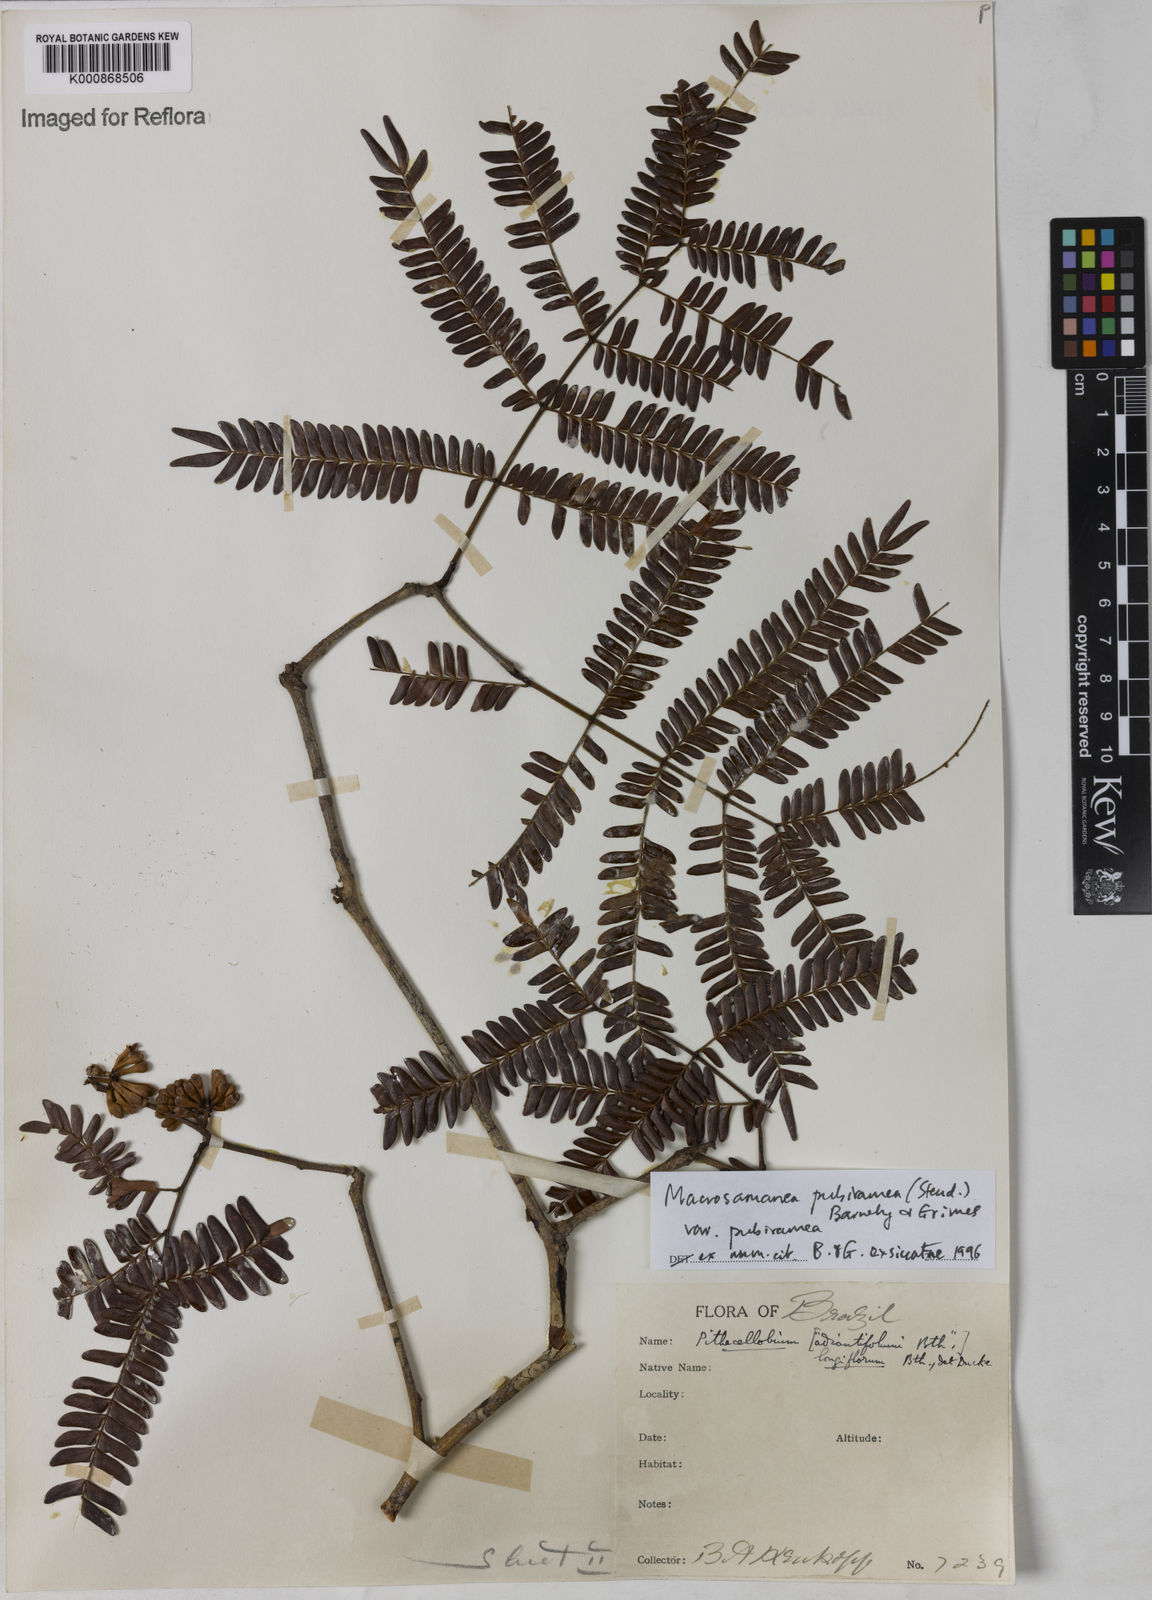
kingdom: Plantae
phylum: Tracheophyta
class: Magnoliopsida
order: Fabales
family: Fabaceae
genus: Macrosamanea
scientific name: Macrosamanea pubiramea
